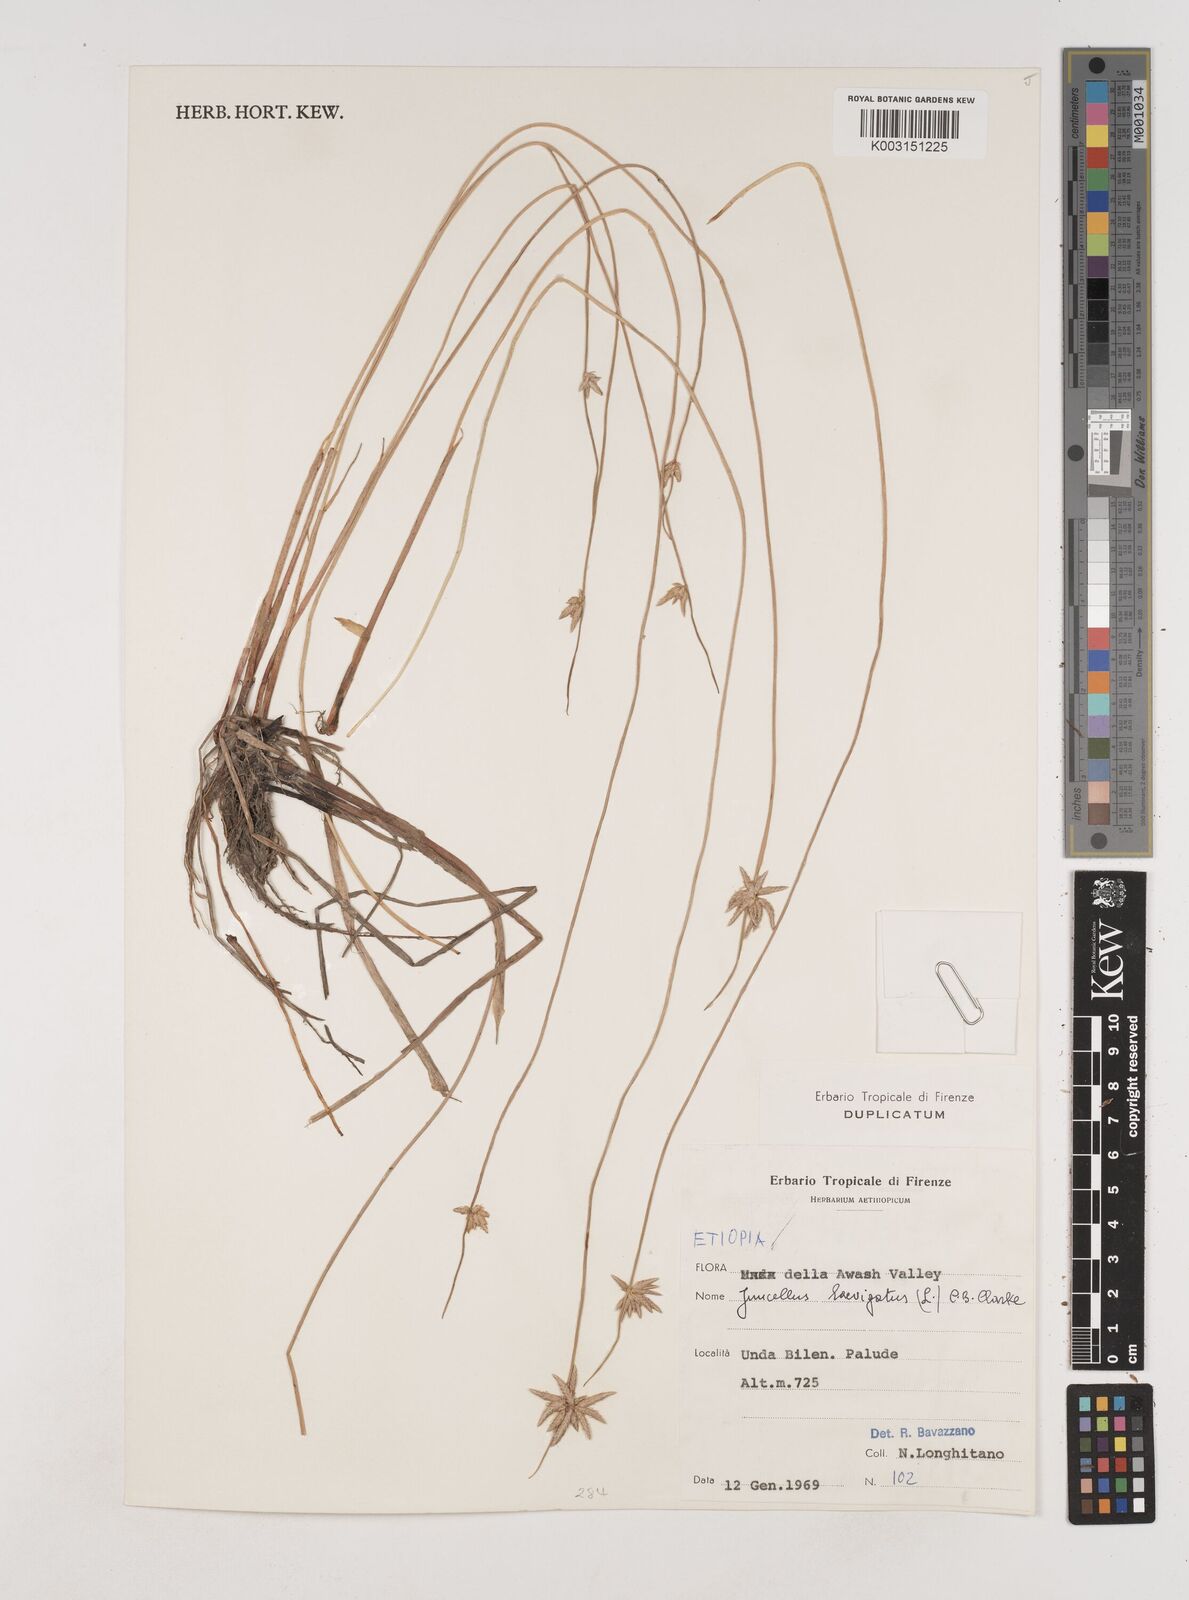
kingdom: Plantae
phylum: Tracheophyta
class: Liliopsida
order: Poales
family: Cyperaceae
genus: Cyperus
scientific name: Cyperus laevigatus
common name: Smooth flat sedge
